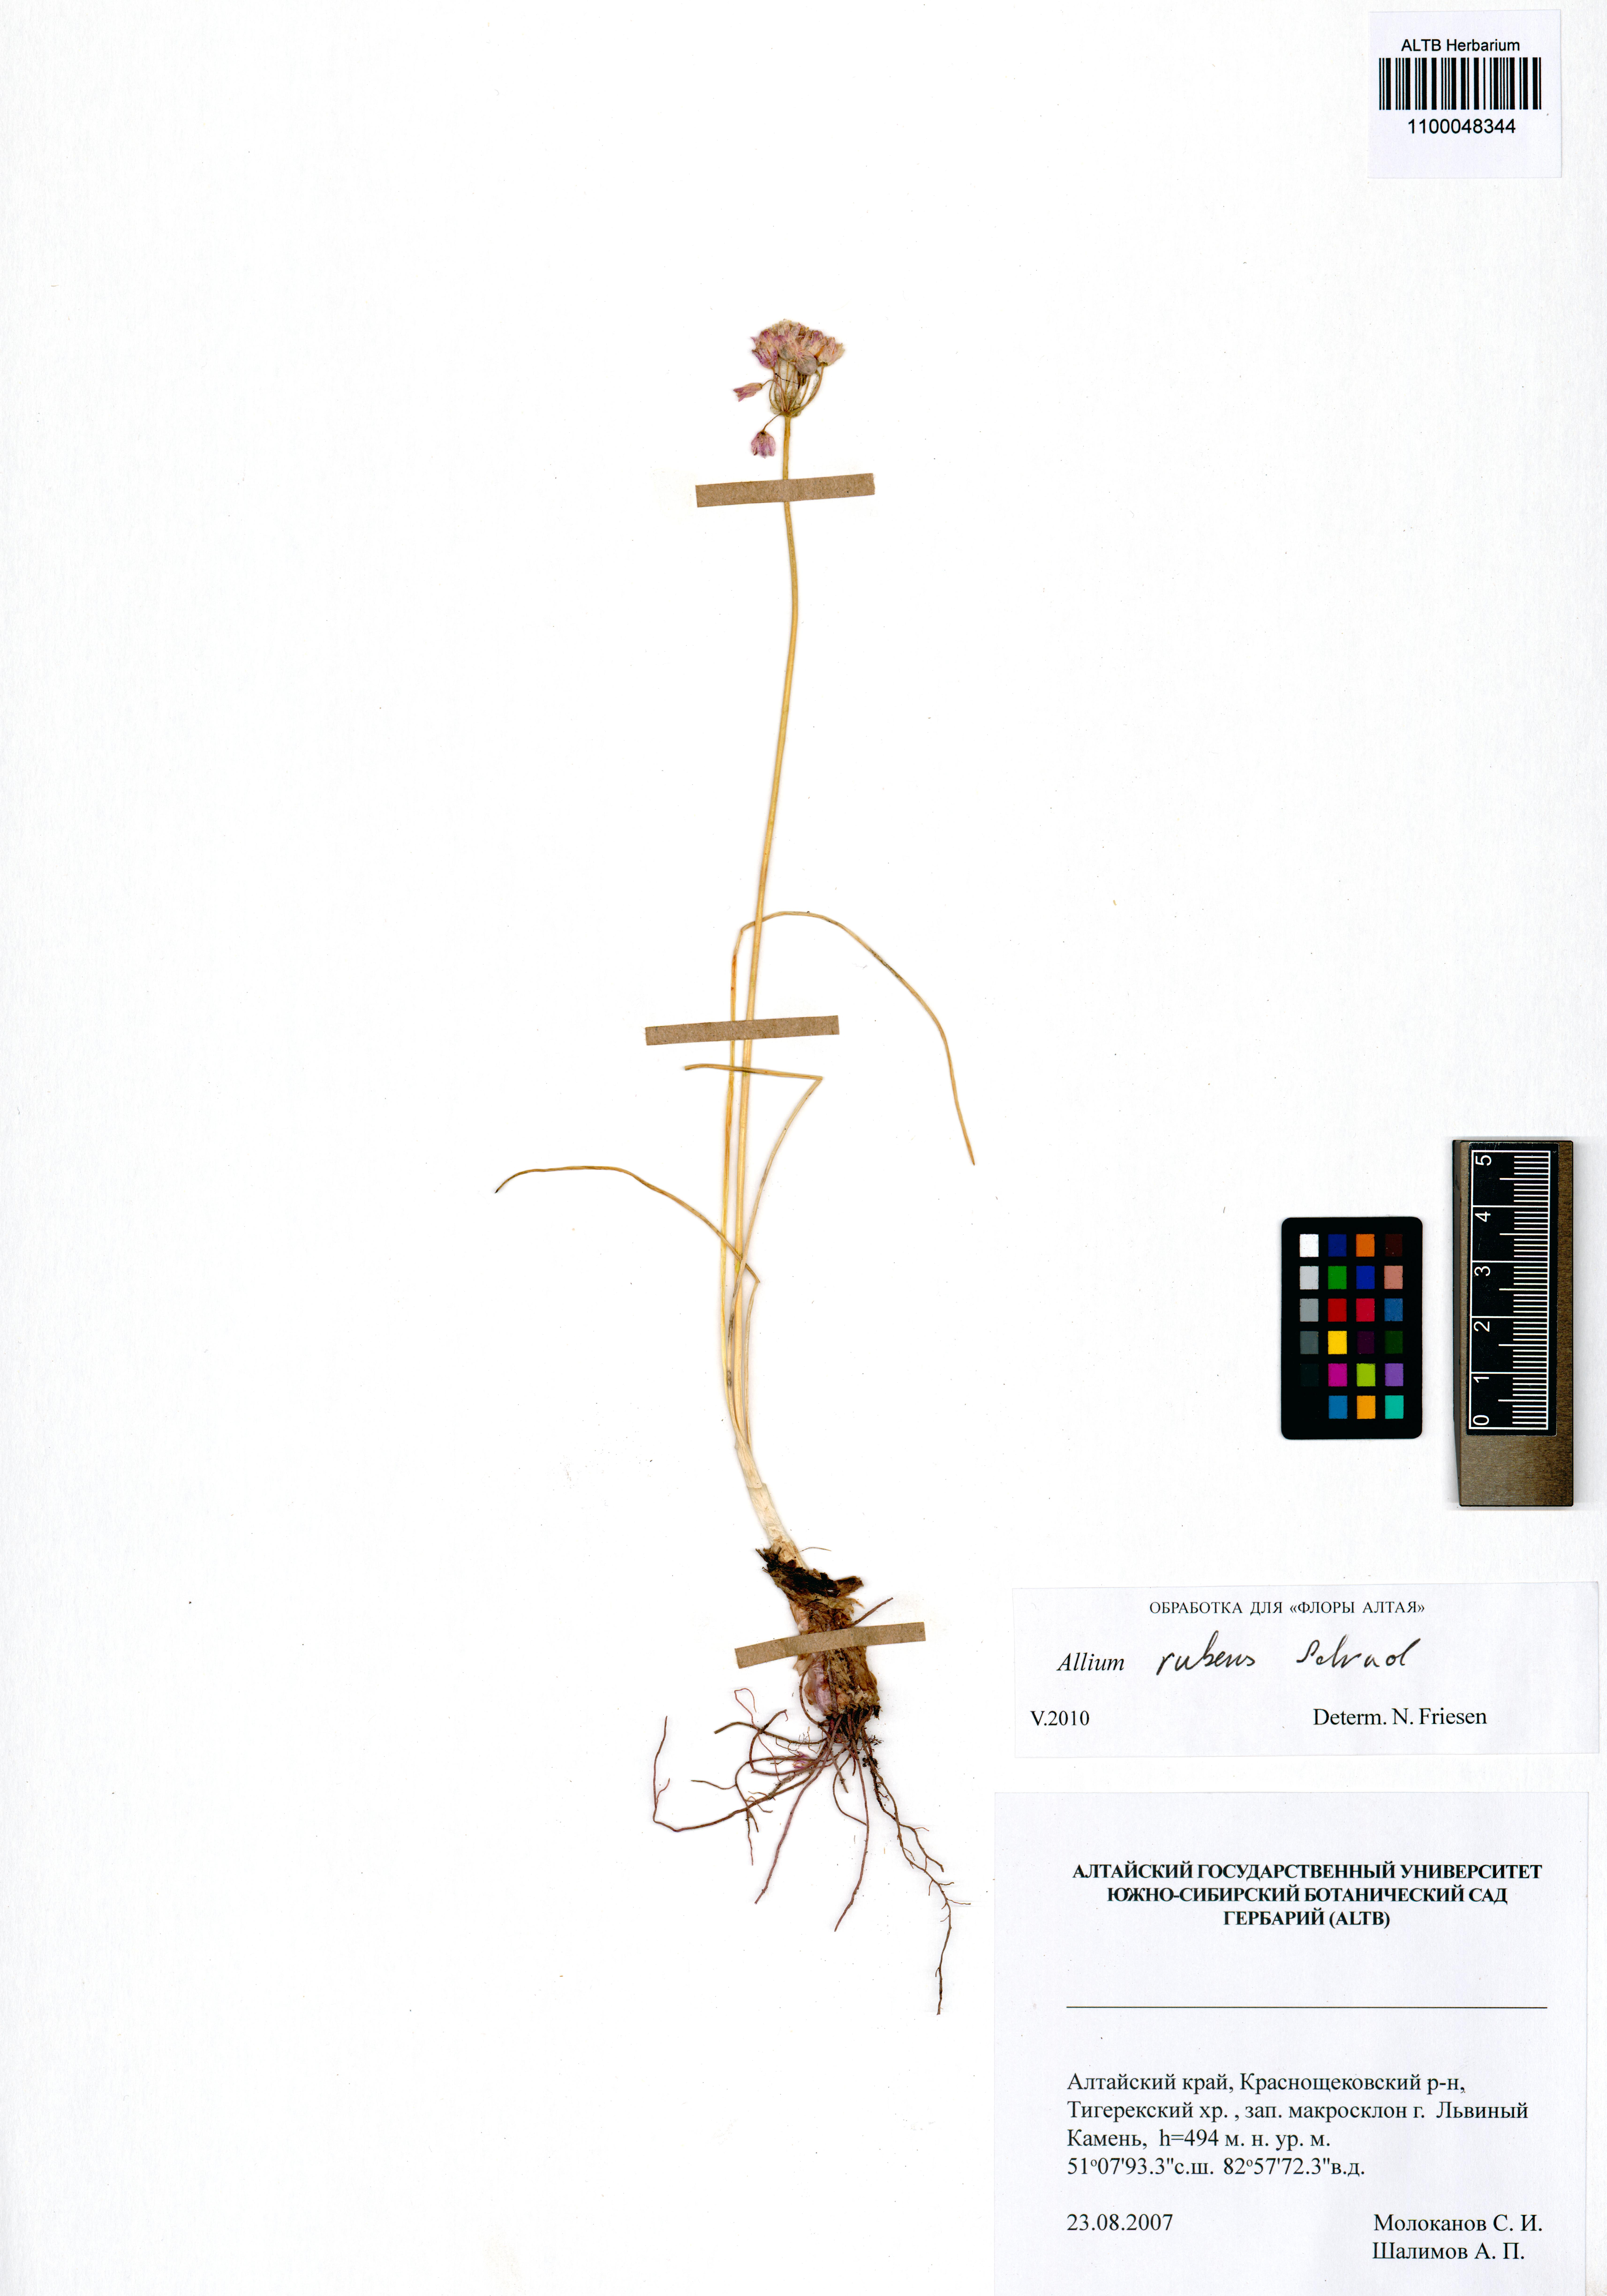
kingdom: Plantae
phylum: Tracheophyta
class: Liliopsida
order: Asparagales
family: Amaryllidaceae
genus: Allium
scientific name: Allium rubens
